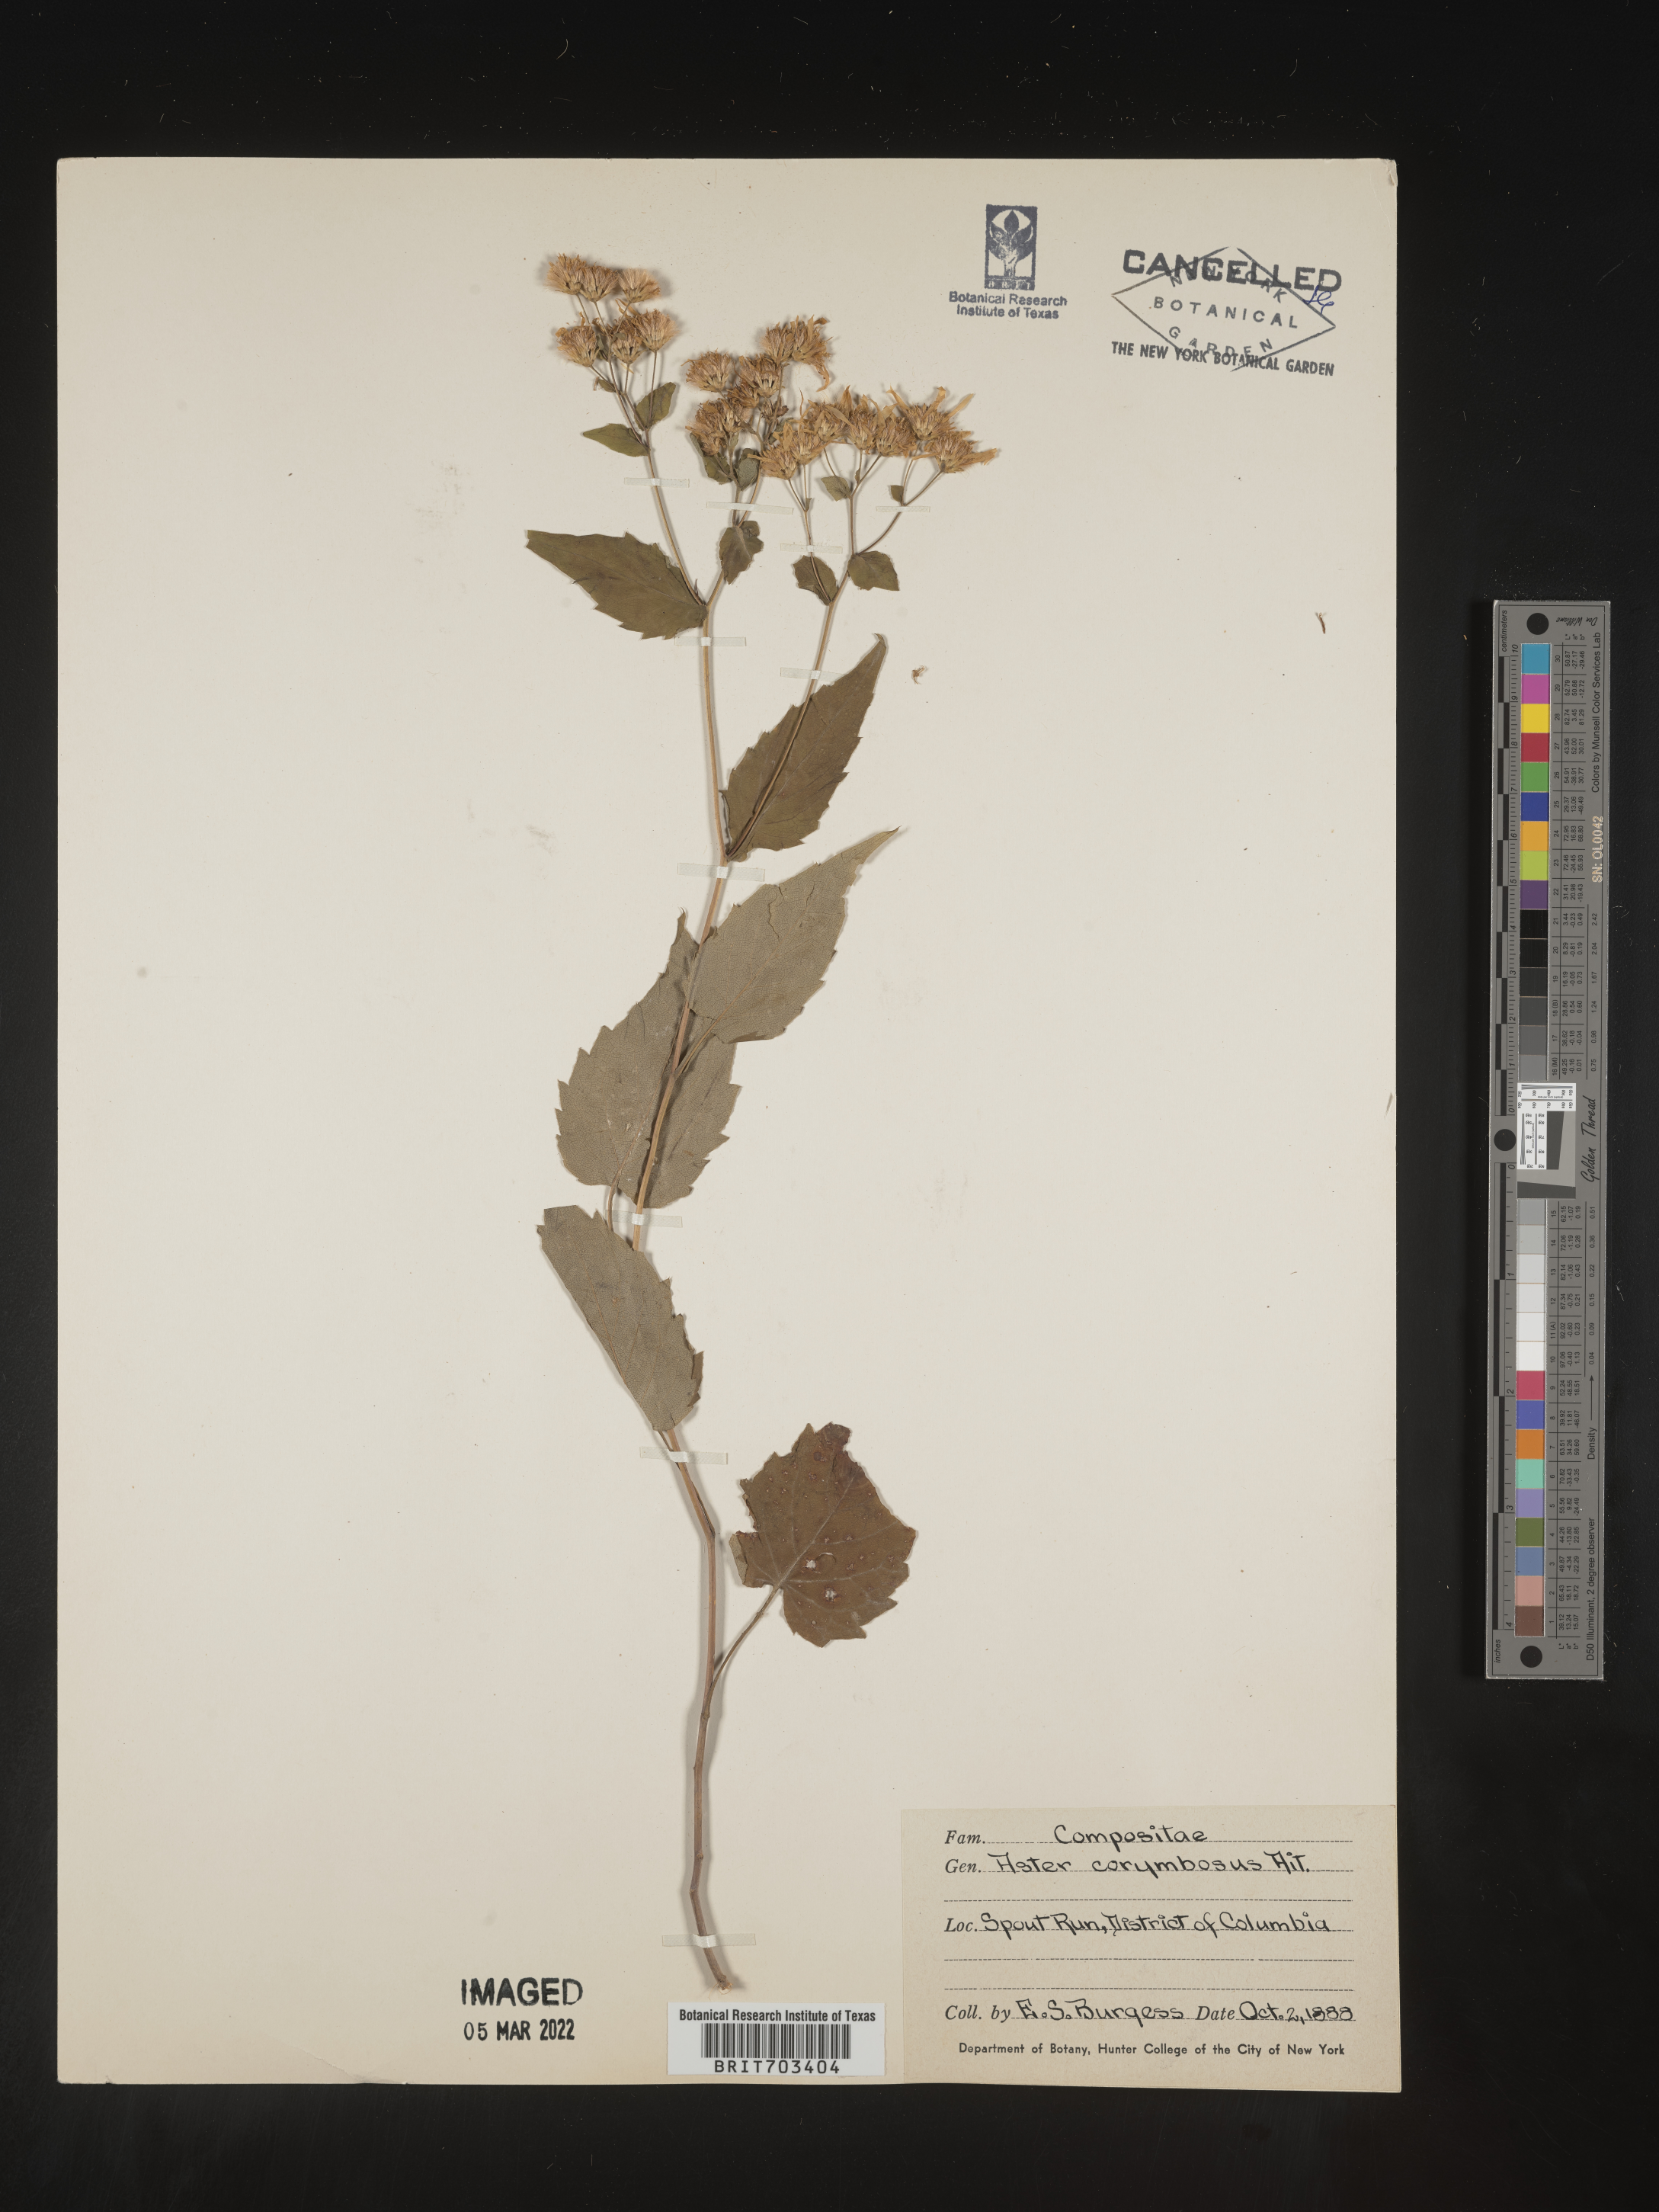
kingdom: Plantae
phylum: Tracheophyta
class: Magnoliopsida
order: Asterales
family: Asteraceae
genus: Eurybia
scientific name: Eurybia divaricata
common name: White wood aster
